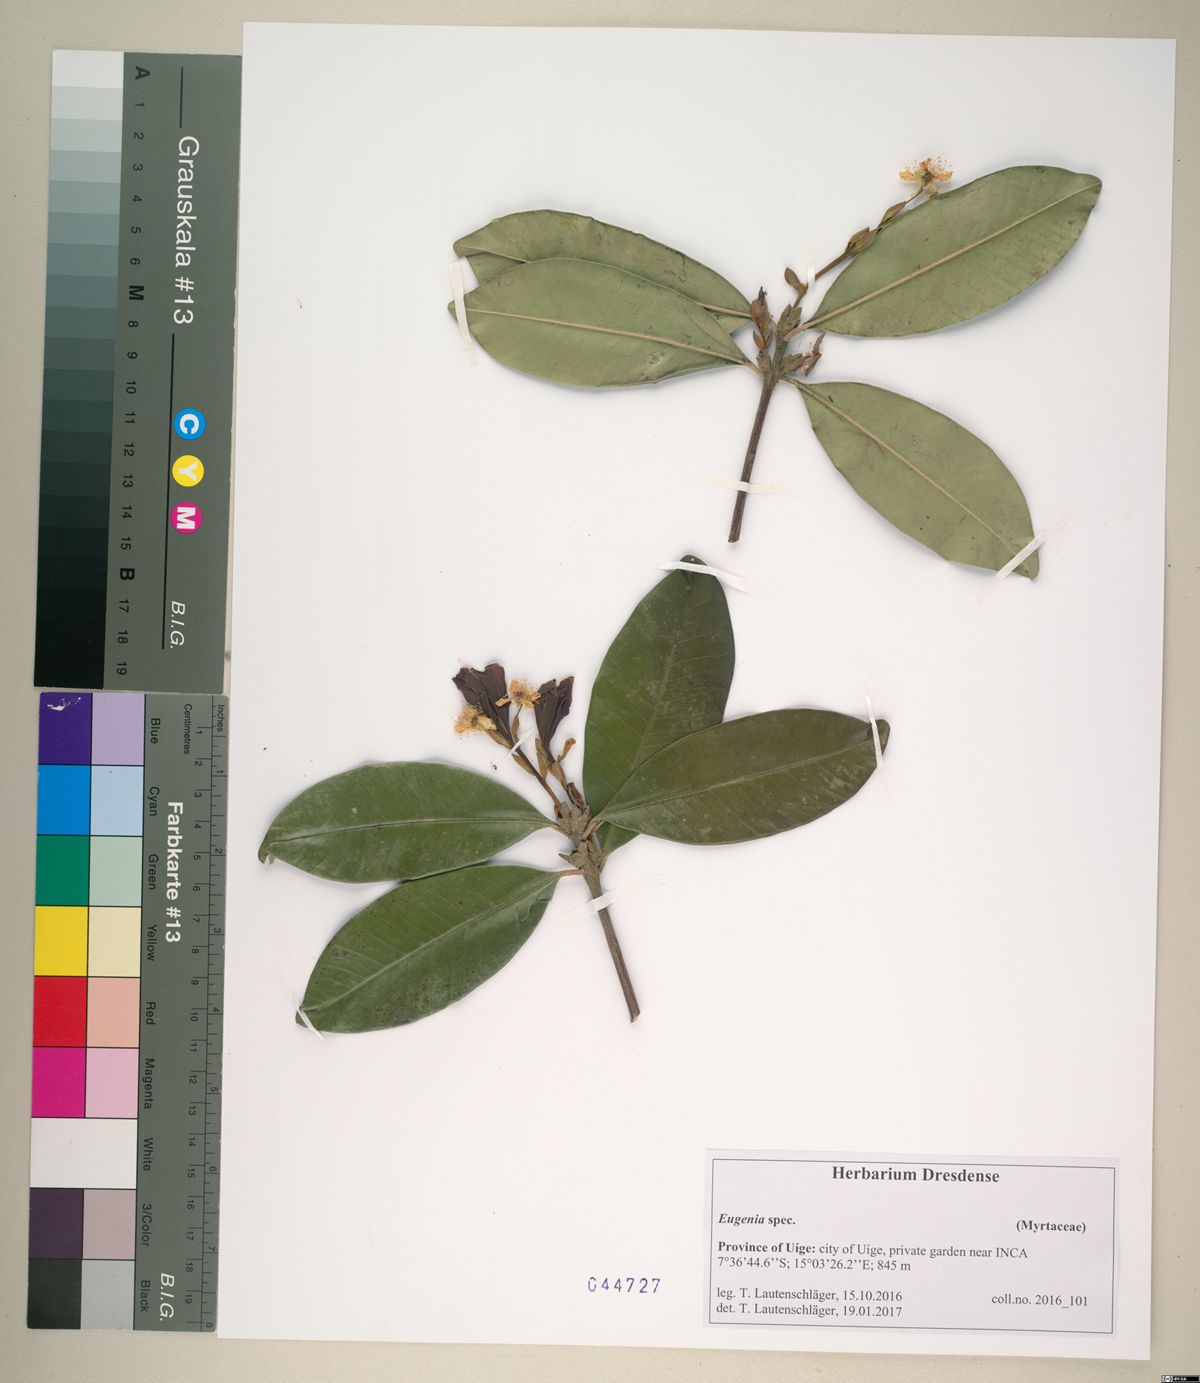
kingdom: Plantae
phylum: Tracheophyta
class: Magnoliopsida
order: Myrtales
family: Myrtaceae
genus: Eugenia
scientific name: Eugenia
